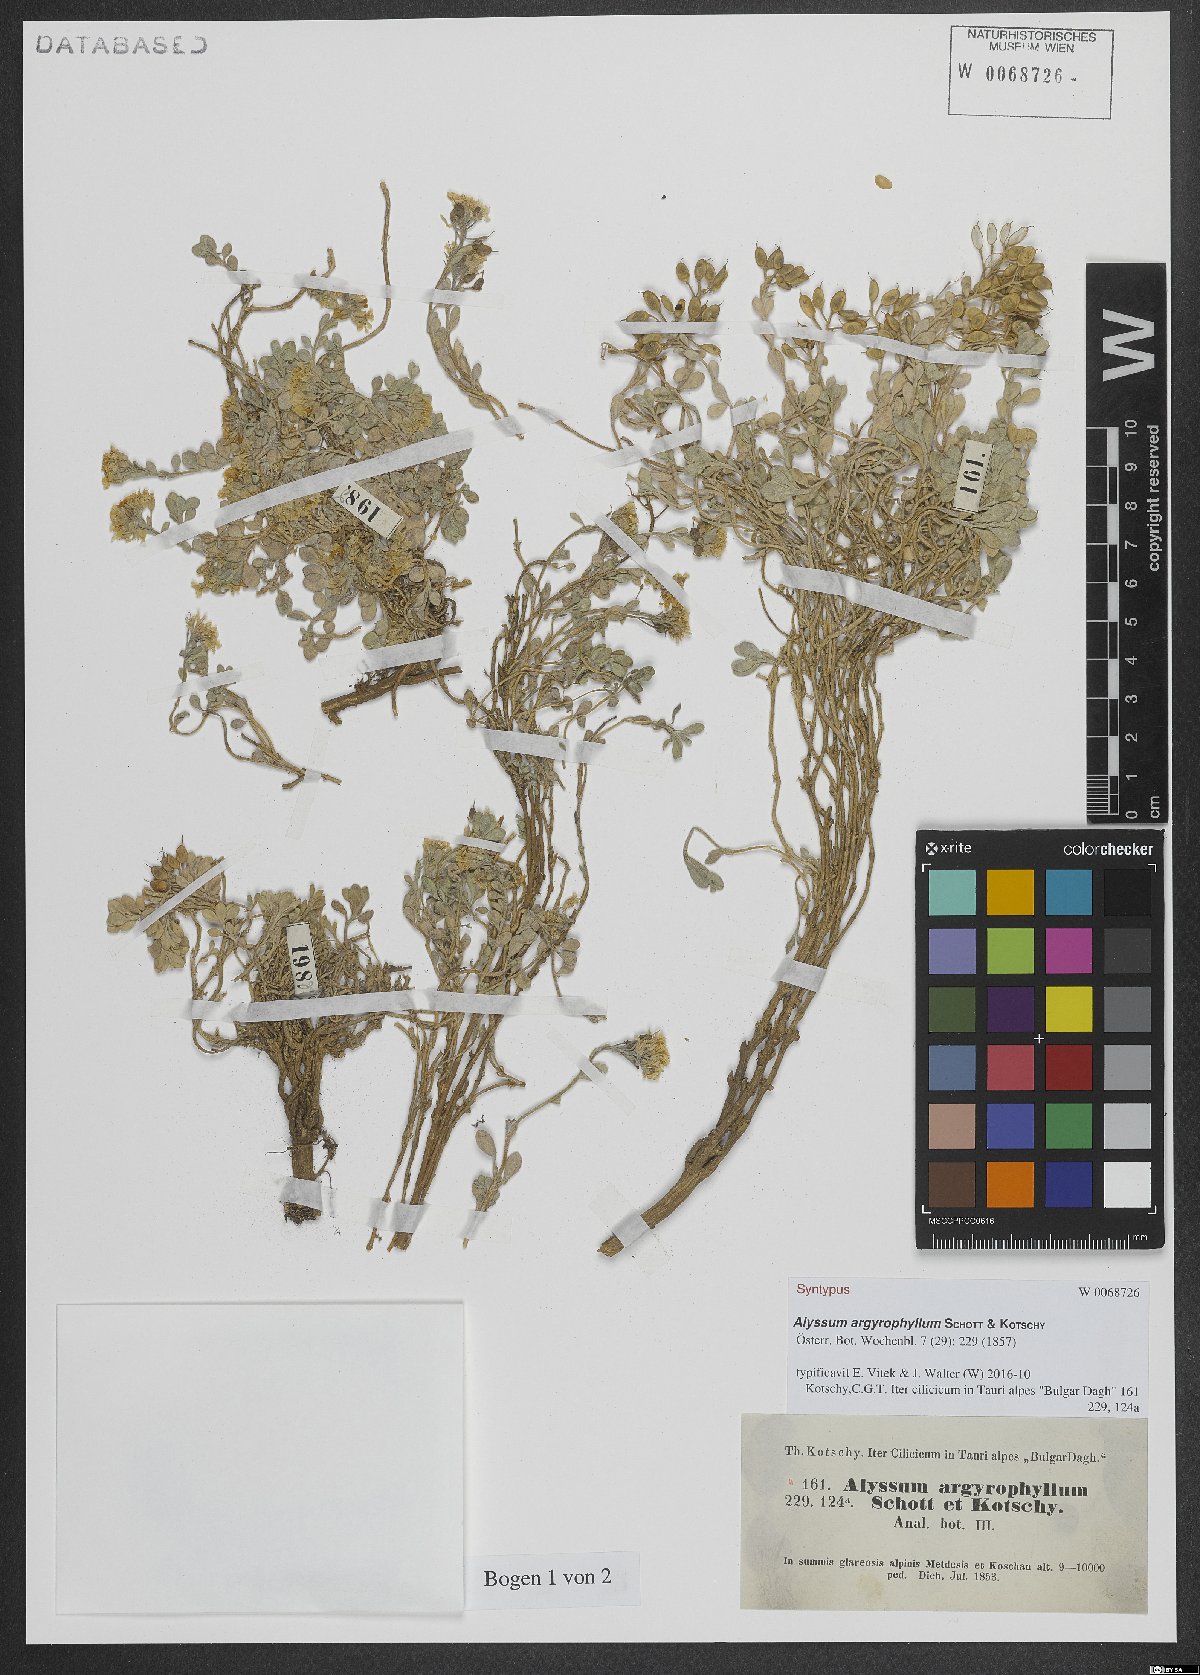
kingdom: Plantae
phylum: Tracheophyta
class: Magnoliopsida
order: Brassicales
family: Brassicaceae
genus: Alyssum
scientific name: Alyssum argyrophyllum
